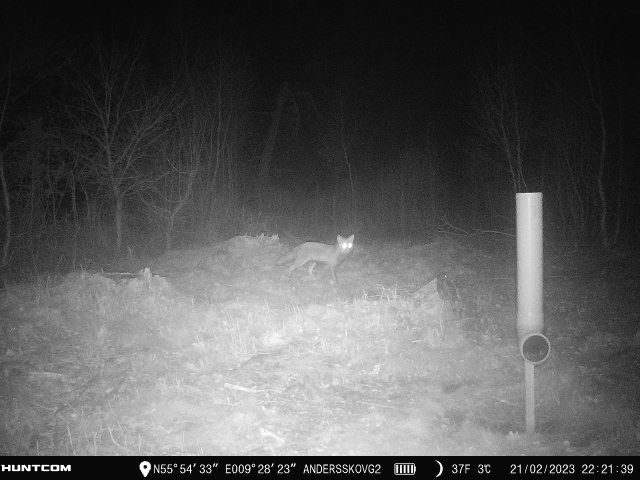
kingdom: Animalia
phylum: Chordata
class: Mammalia
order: Carnivora
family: Canidae
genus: Vulpes
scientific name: Vulpes vulpes
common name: Ræv
